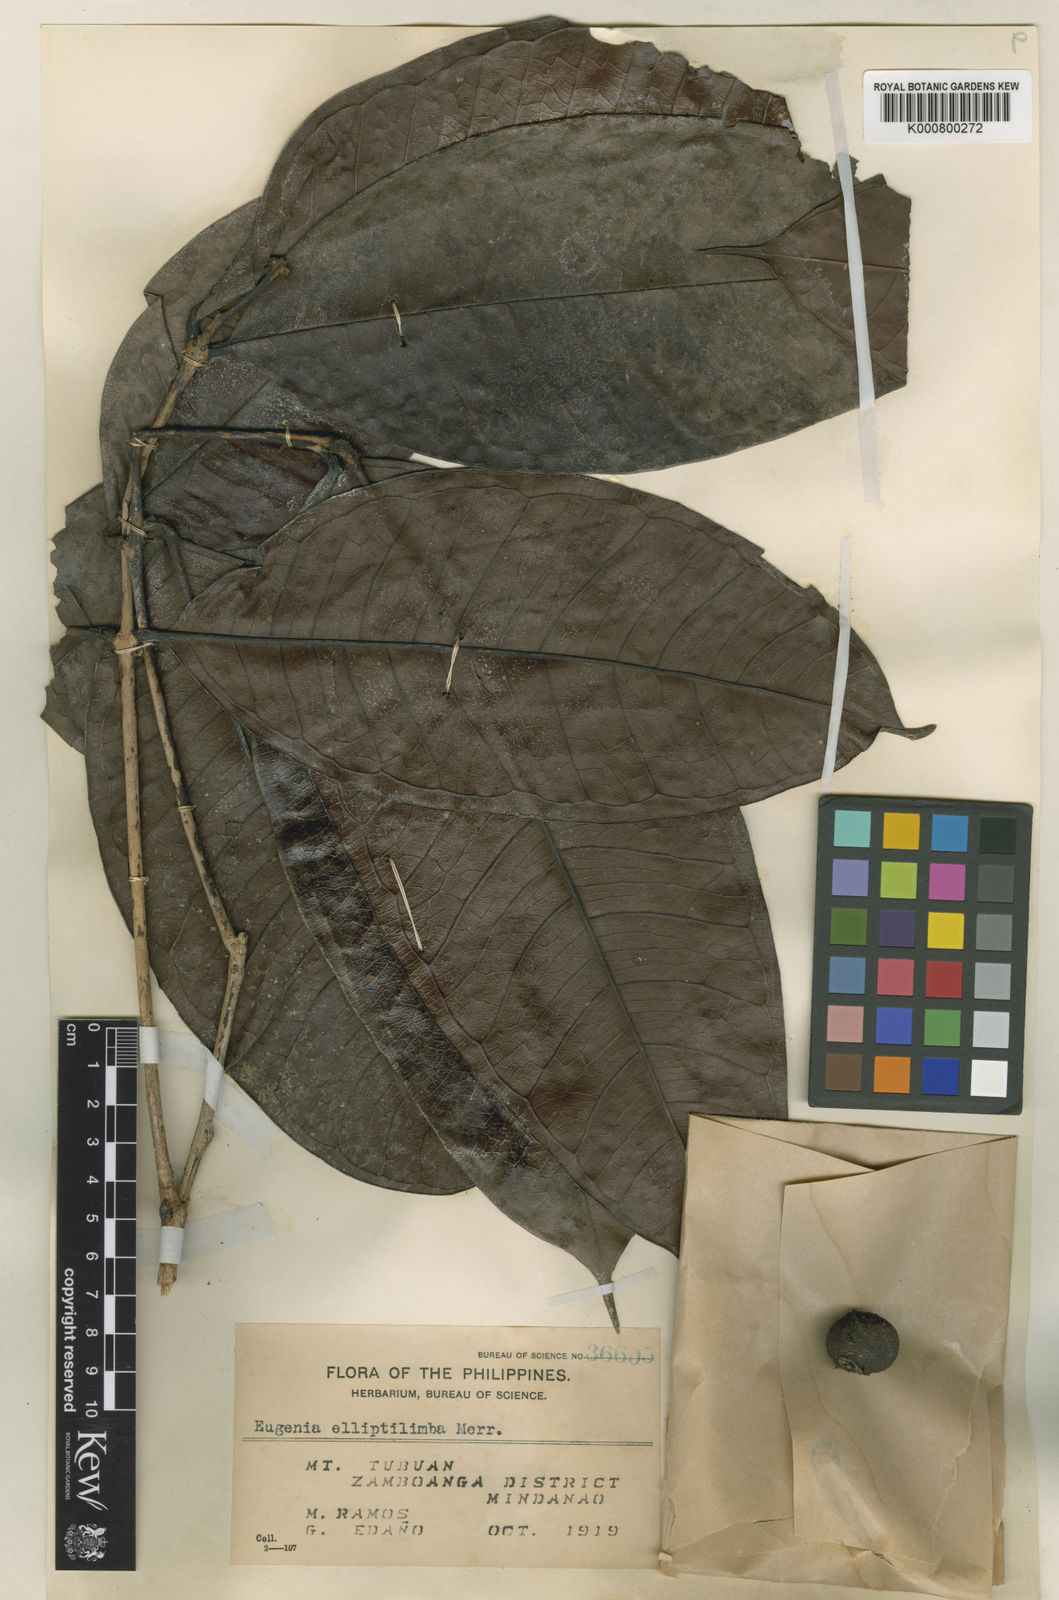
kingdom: Plantae
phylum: Tracheophyta
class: Magnoliopsida
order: Myrtales
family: Myrtaceae
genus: Syzygium
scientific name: Syzygium elliptilimbum
